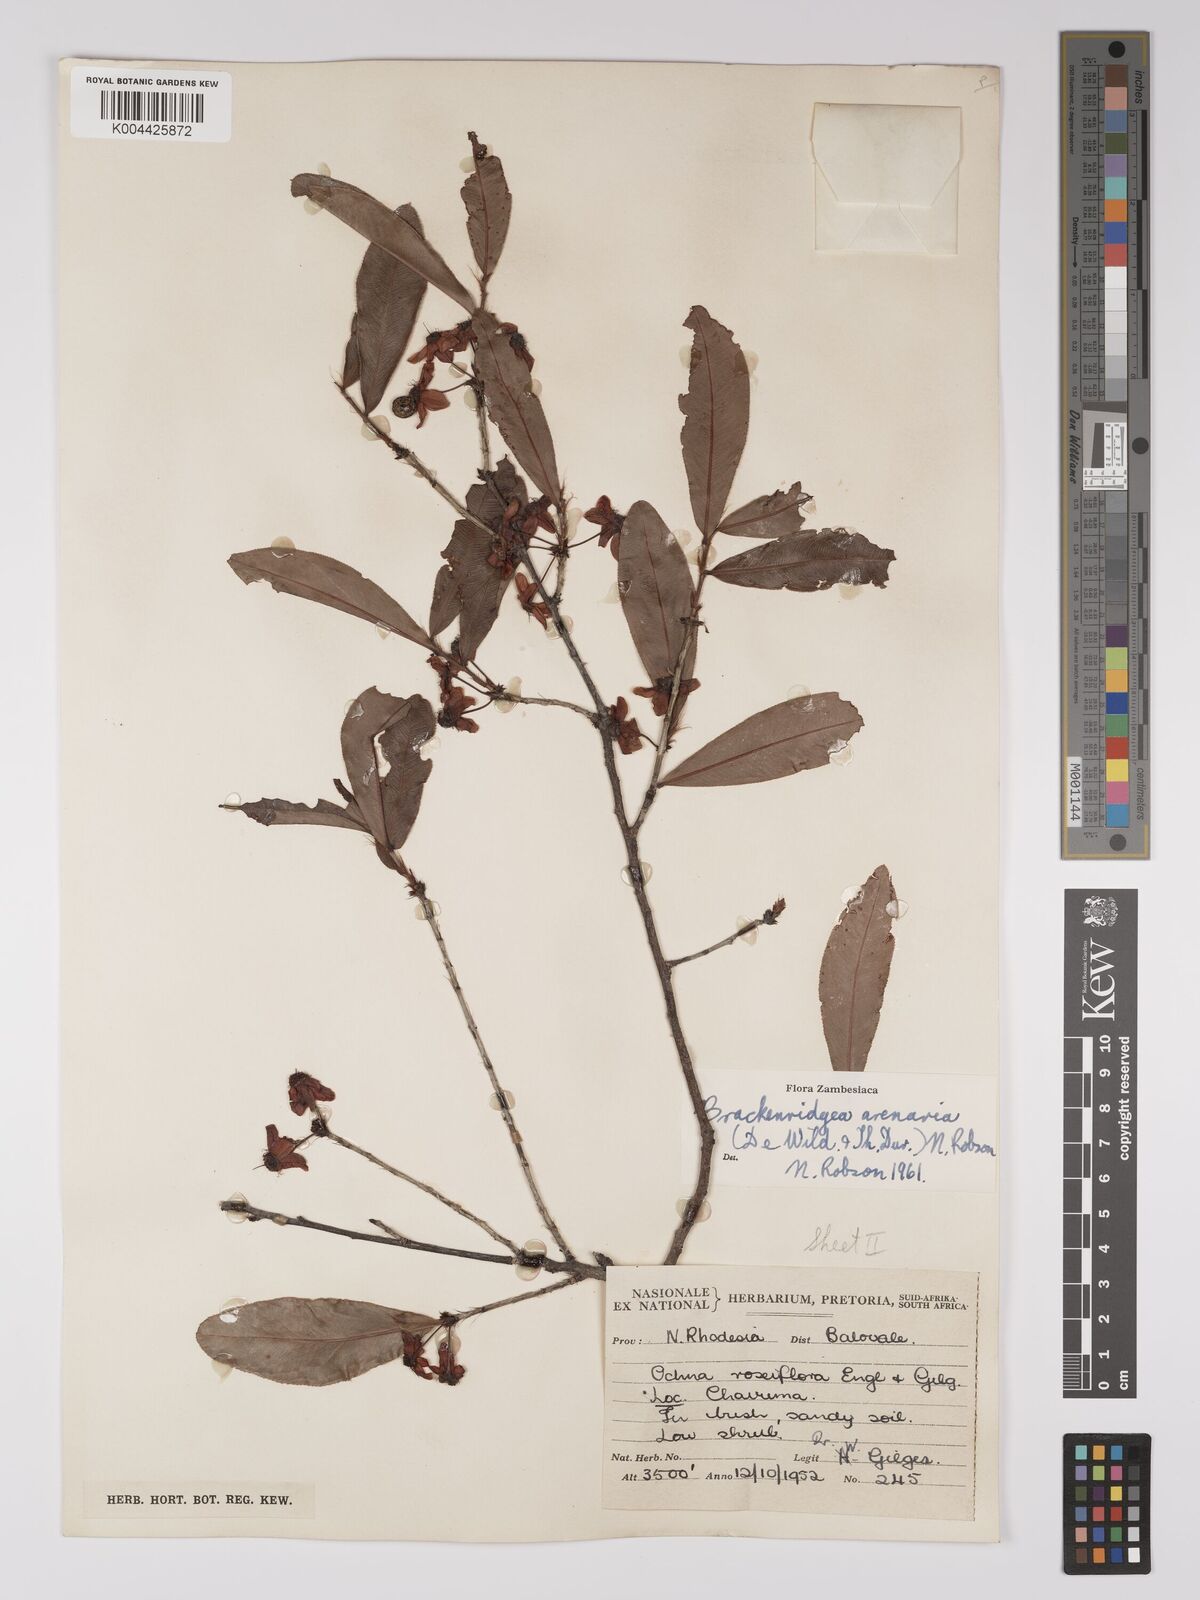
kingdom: Plantae
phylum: Tracheophyta
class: Magnoliopsida
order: Malpighiales
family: Ochnaceae
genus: Ochna
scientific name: Ochna arenaria
